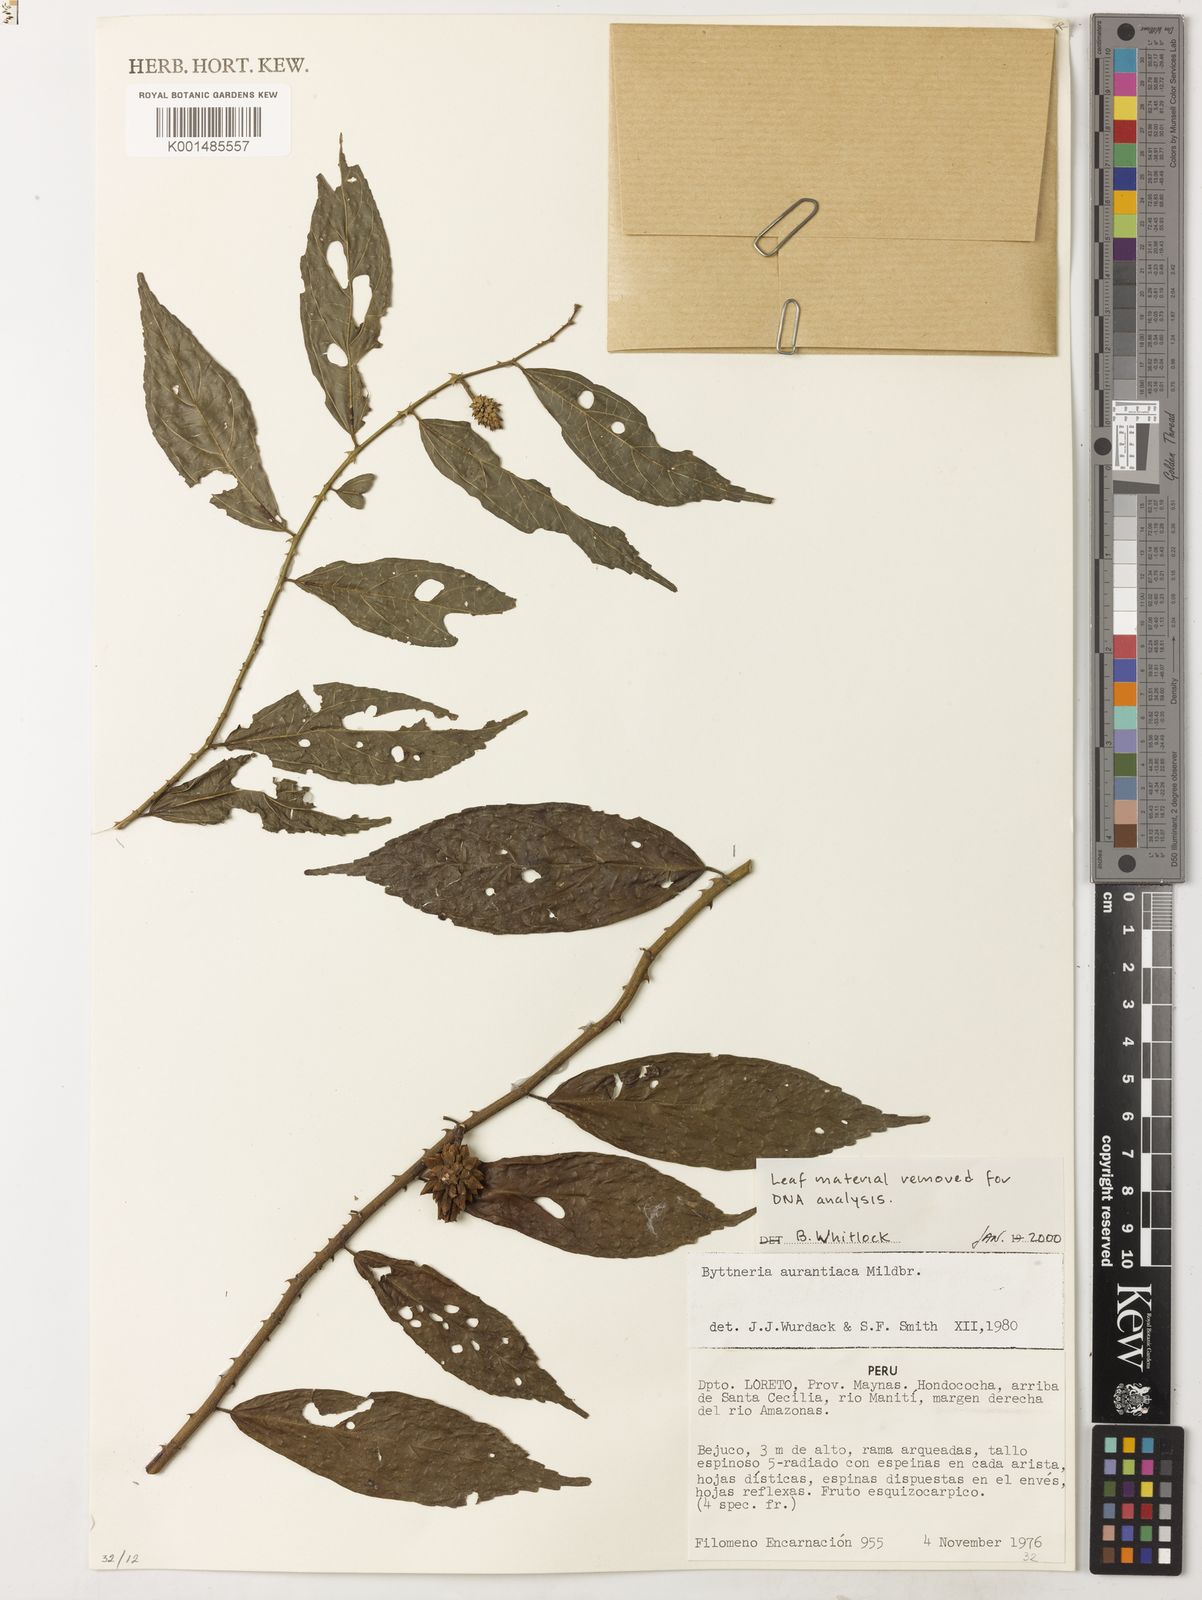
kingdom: Plantae
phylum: Tracheophyta
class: Magnoliopsida
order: Malvales
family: Malvaceae
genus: Byttneria
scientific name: Byttneria aurantiaca
